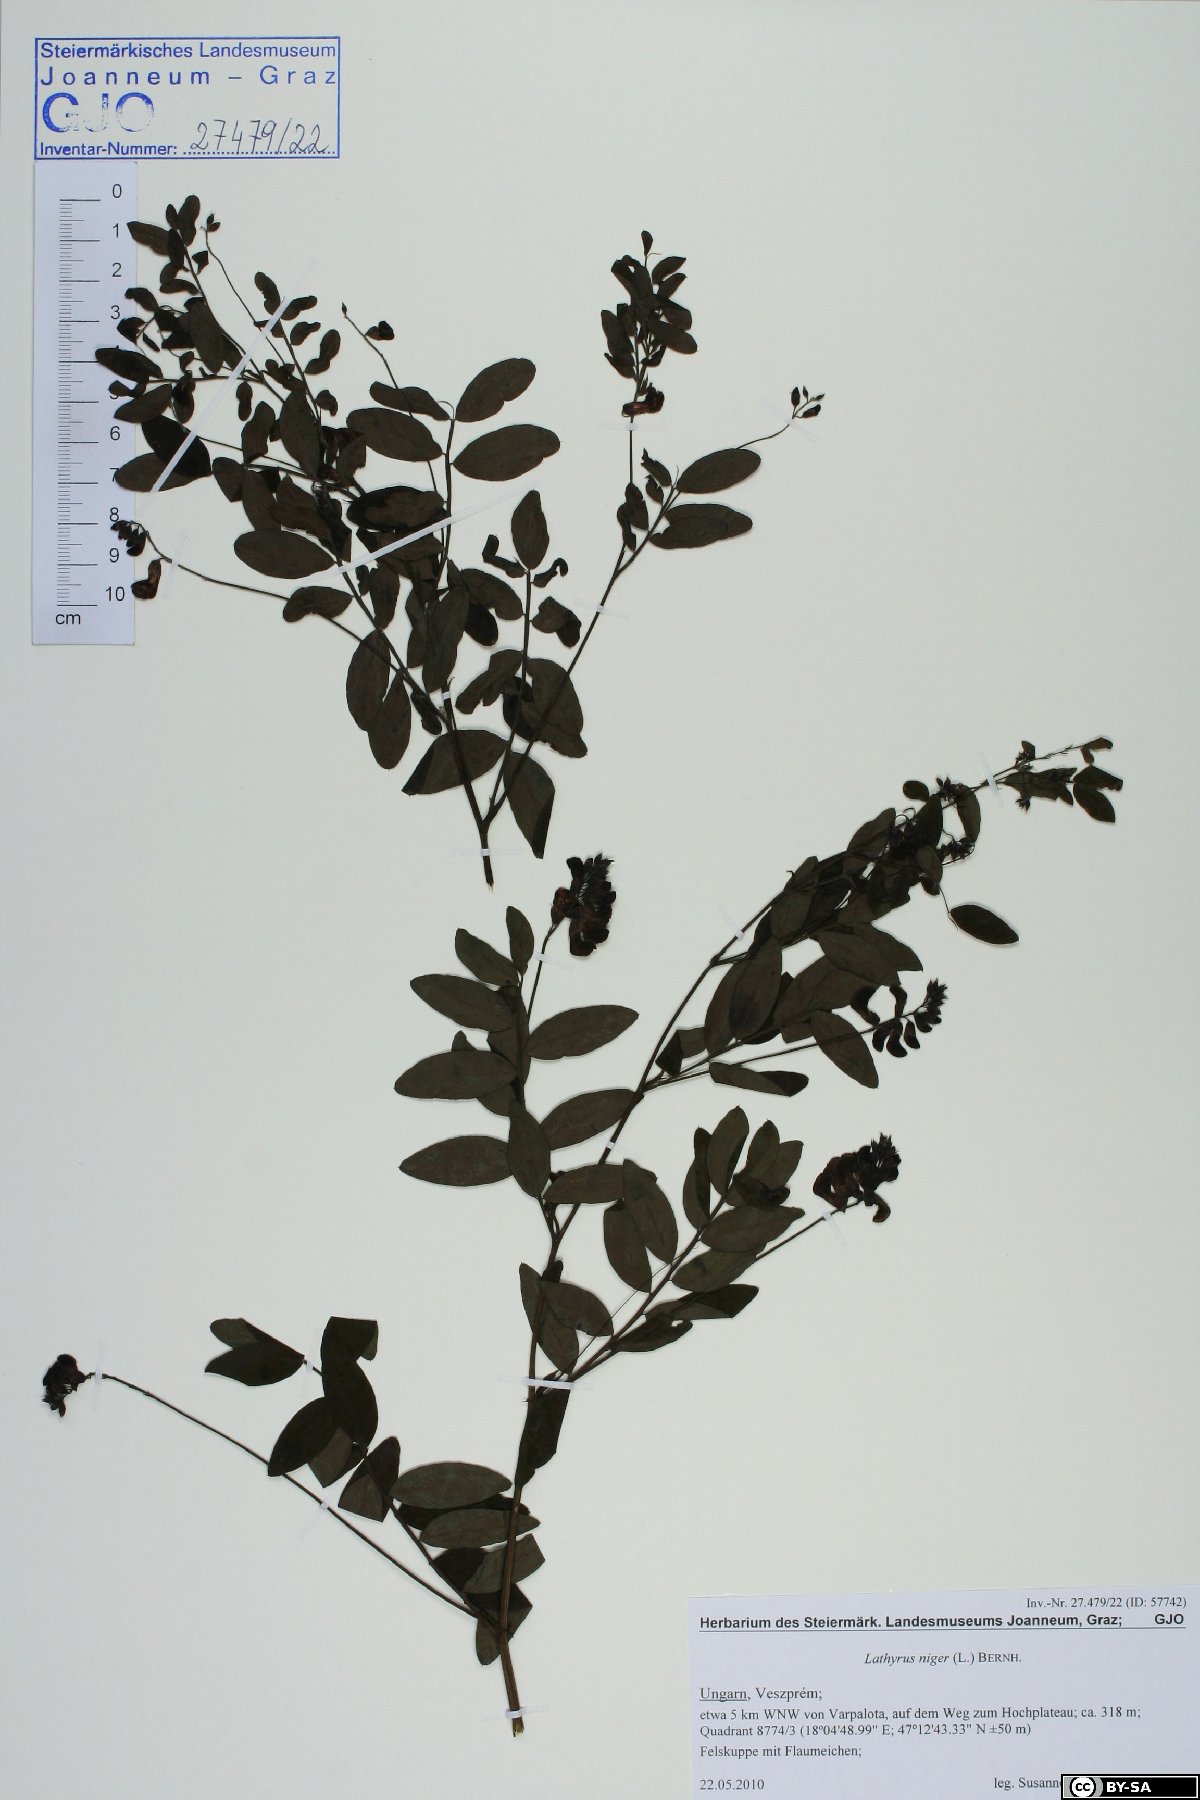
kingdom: Plantae
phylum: Tracheophyta
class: Magnoliopsida
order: Fabales
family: Fabaceae
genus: Lathyrus
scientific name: Lathyrus niger
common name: Black pea
